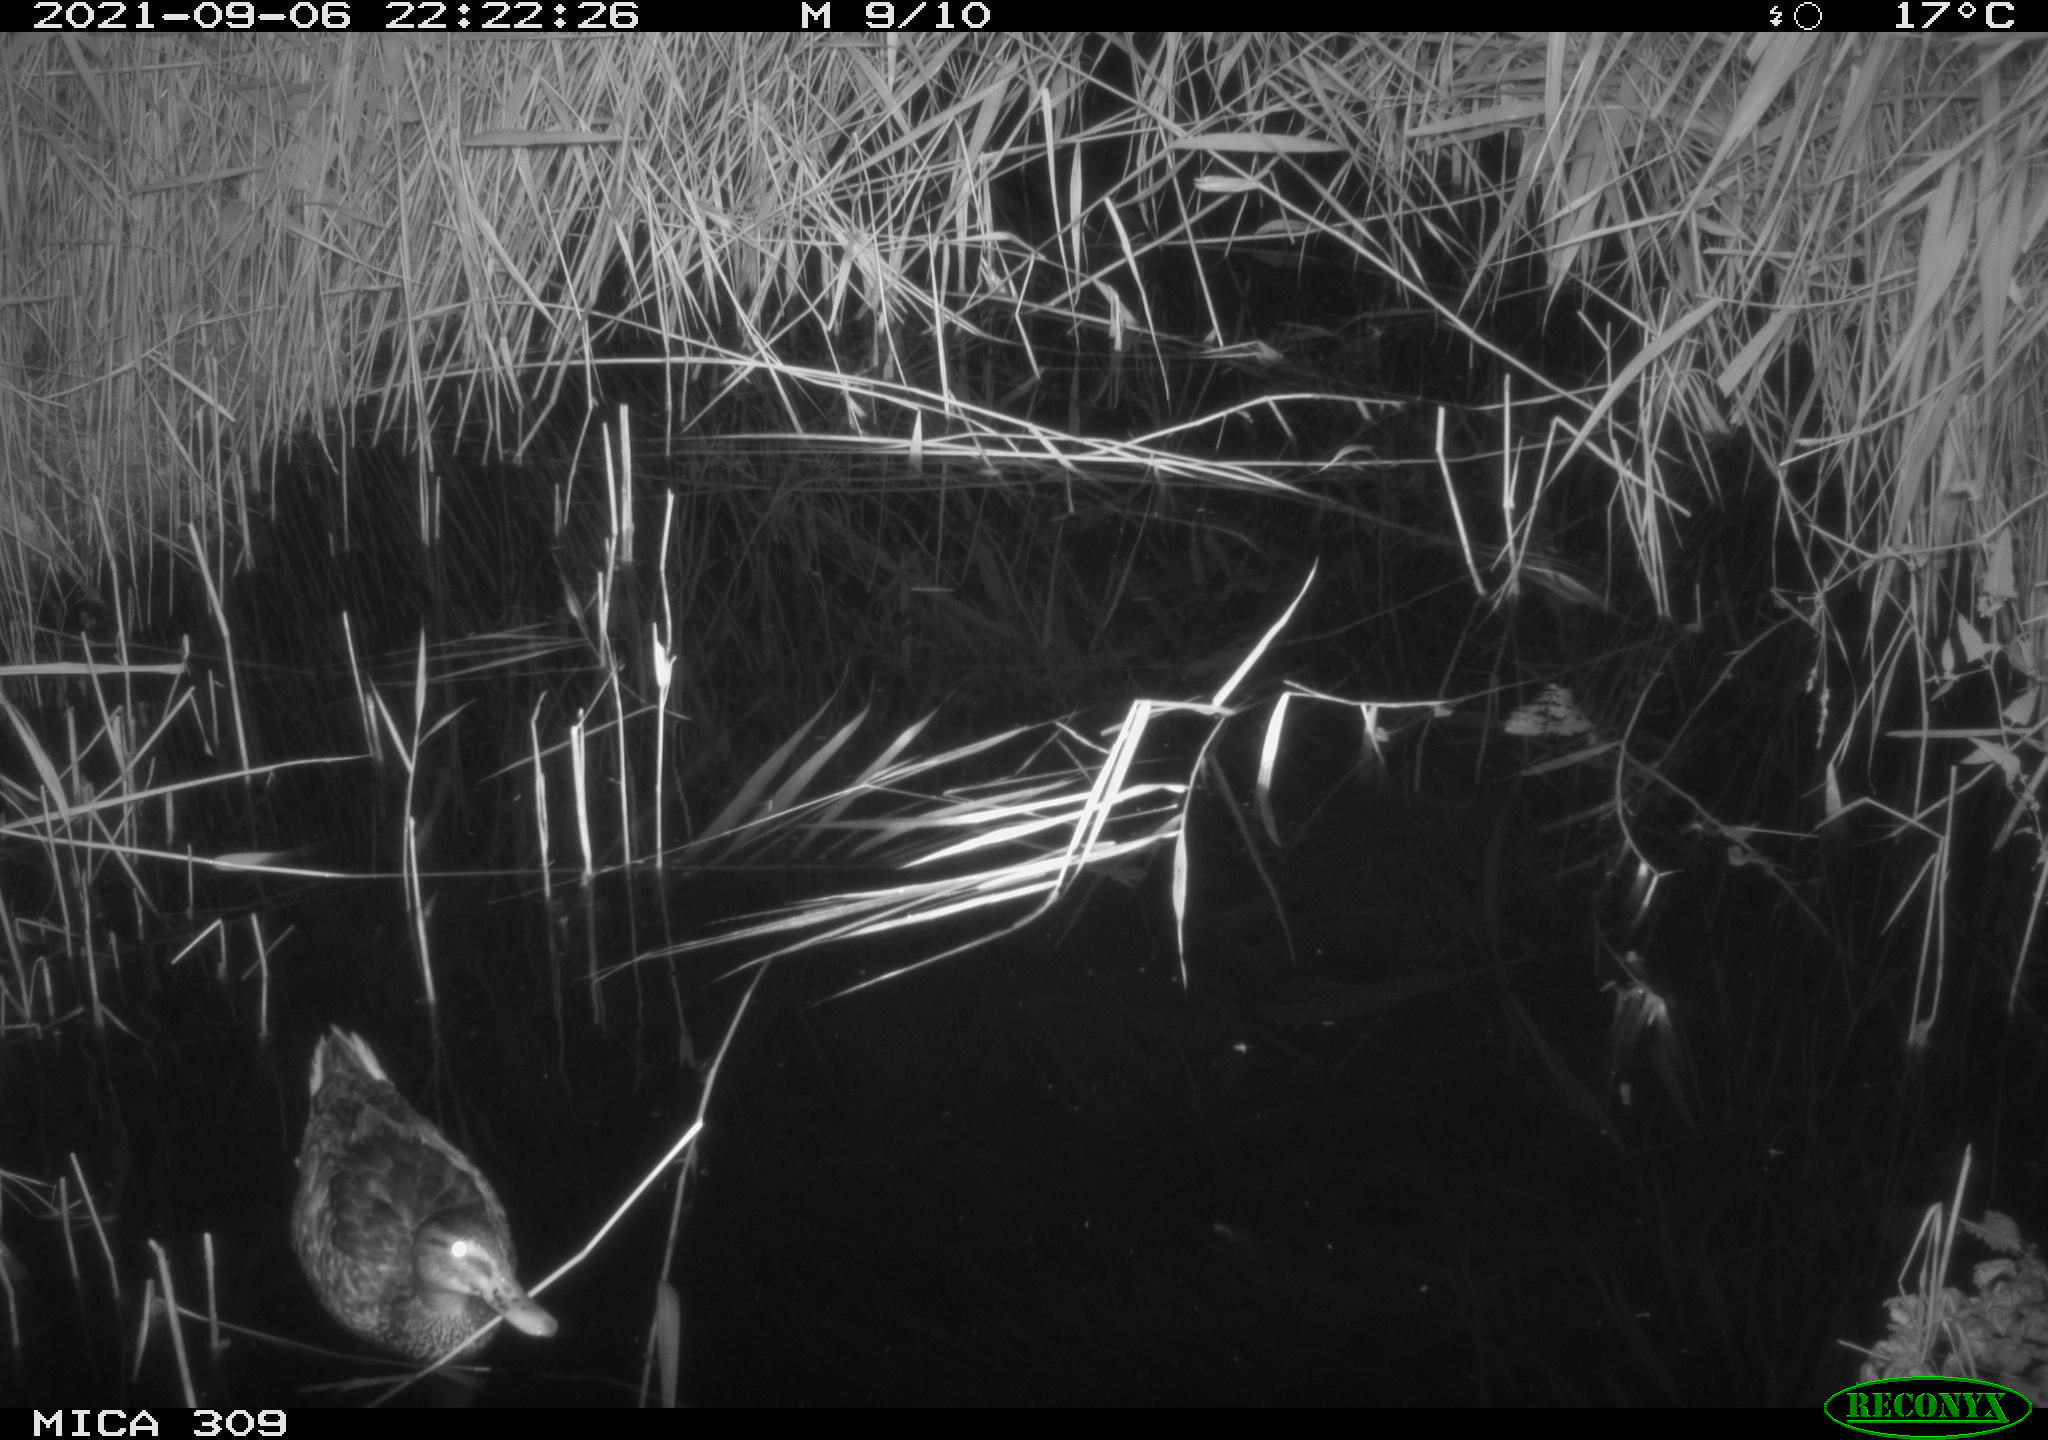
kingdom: Animalia
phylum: Chordata
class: Aves
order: Anseriformes
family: Anatidae
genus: Anas
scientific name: Anas platyrhynchos
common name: Mallard
